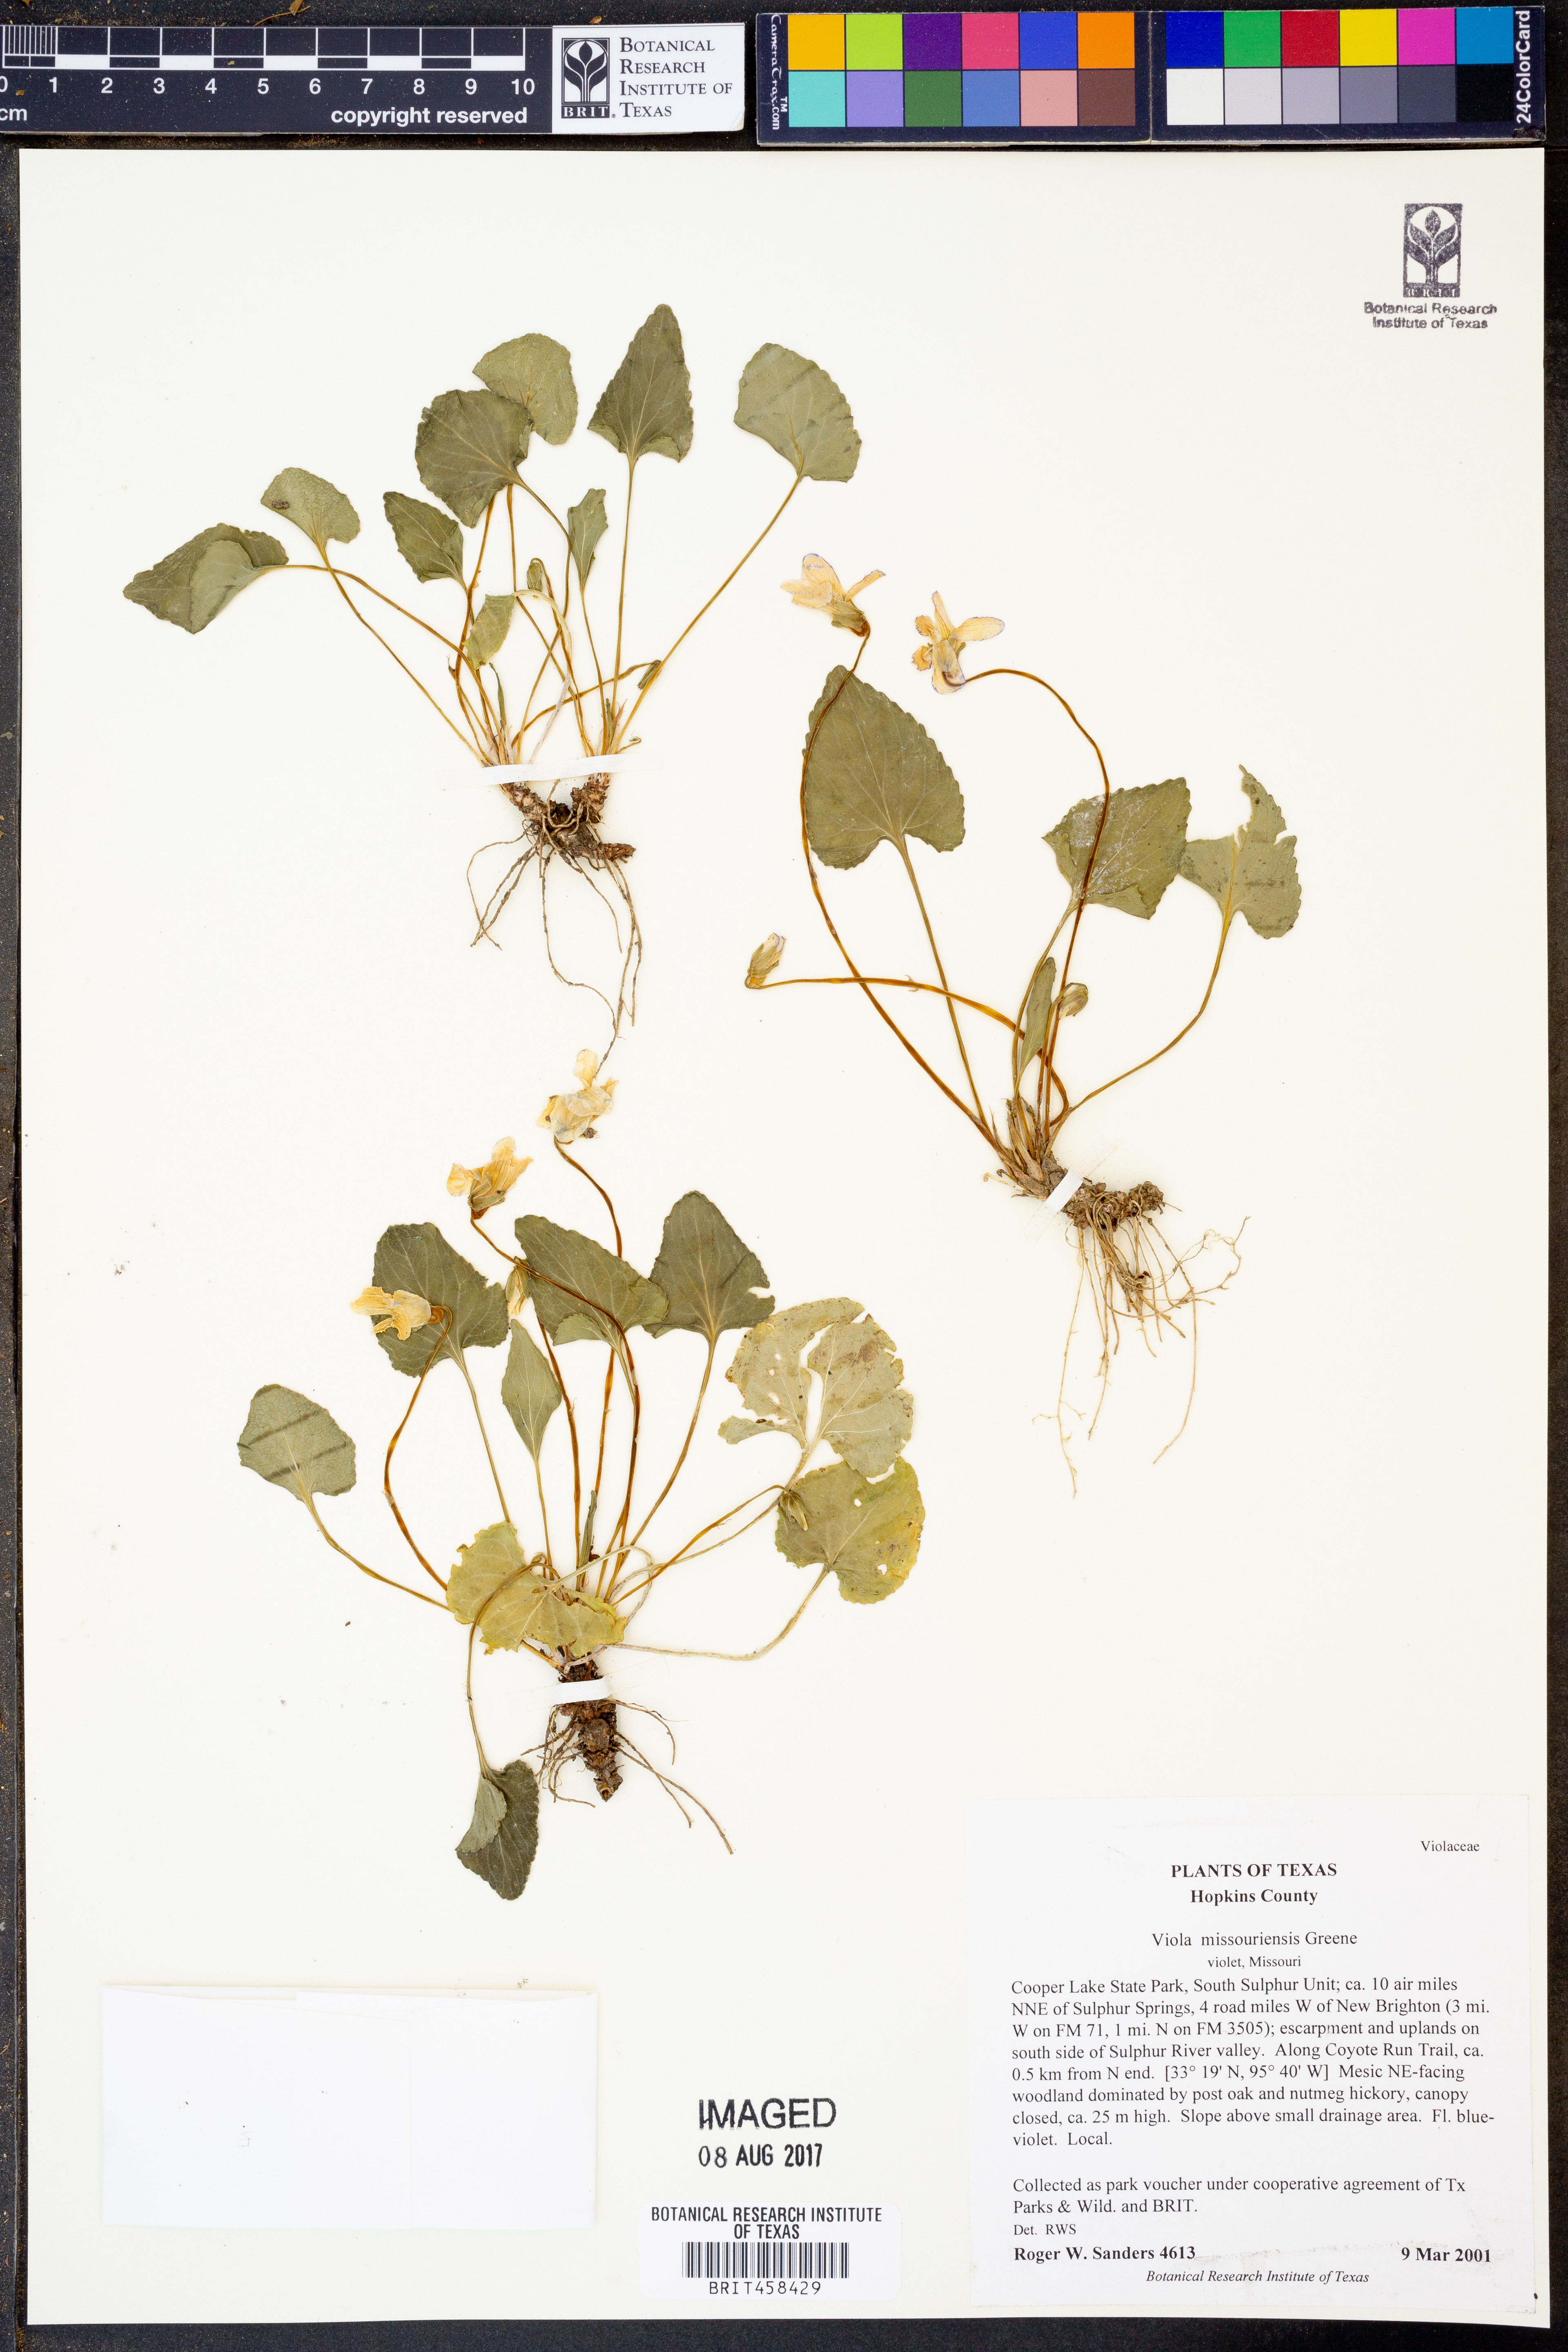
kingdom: Plantae
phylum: Tracheophyta
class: Magnoliopsida
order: Malpighiales
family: Violaceae
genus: Viola
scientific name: Viola missouriensis
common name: Missouri violet
